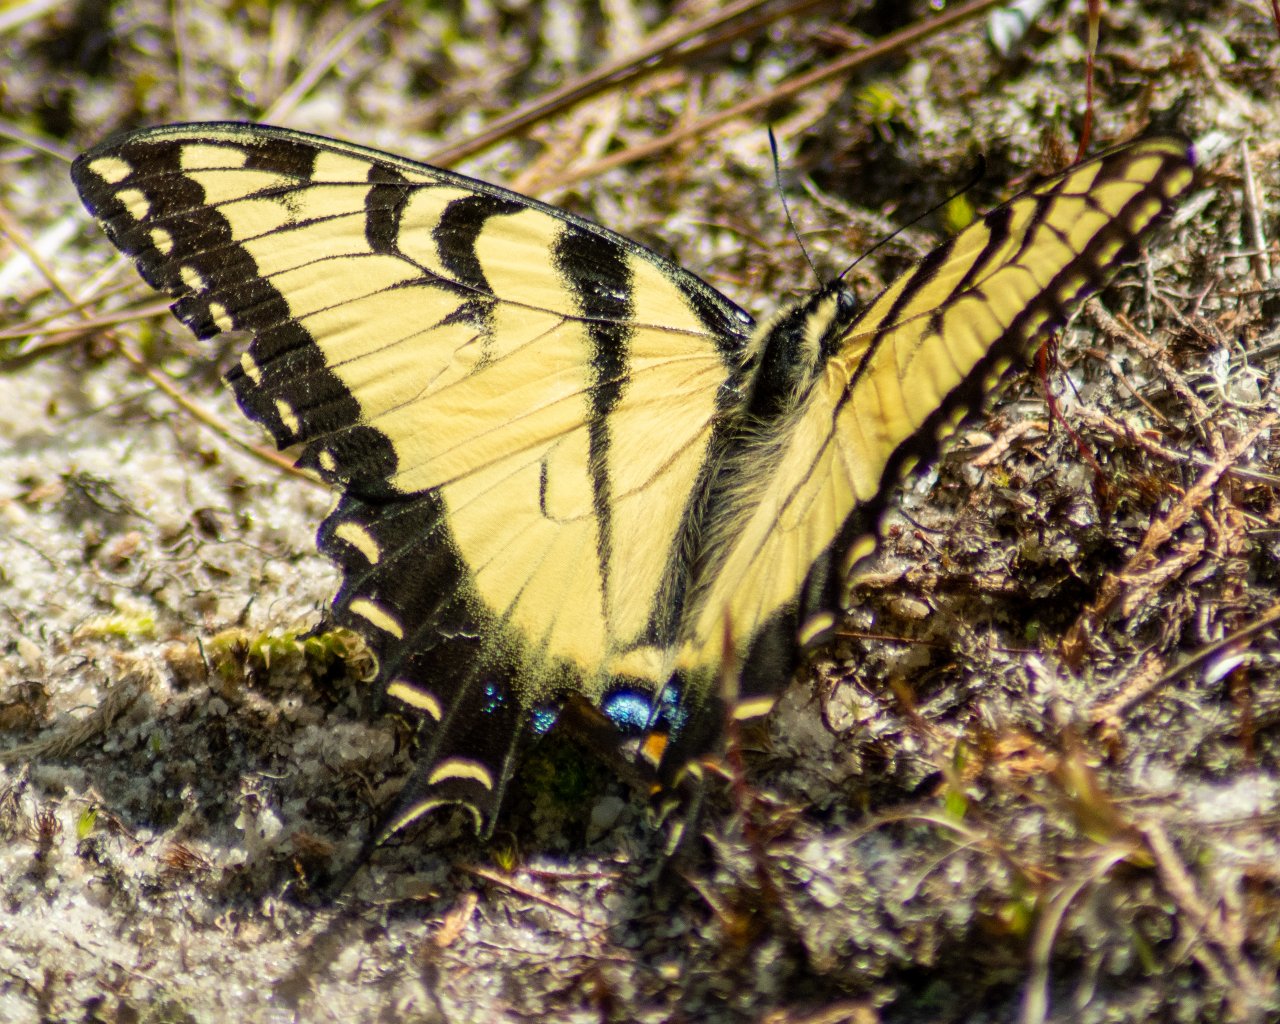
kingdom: Animalia
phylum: Arthropoda
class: Insecta
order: Lepidoptera
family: Papilionidae
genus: Pterourus
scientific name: Pterourus glaucus
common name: Eastern Tiger Swallowtail
